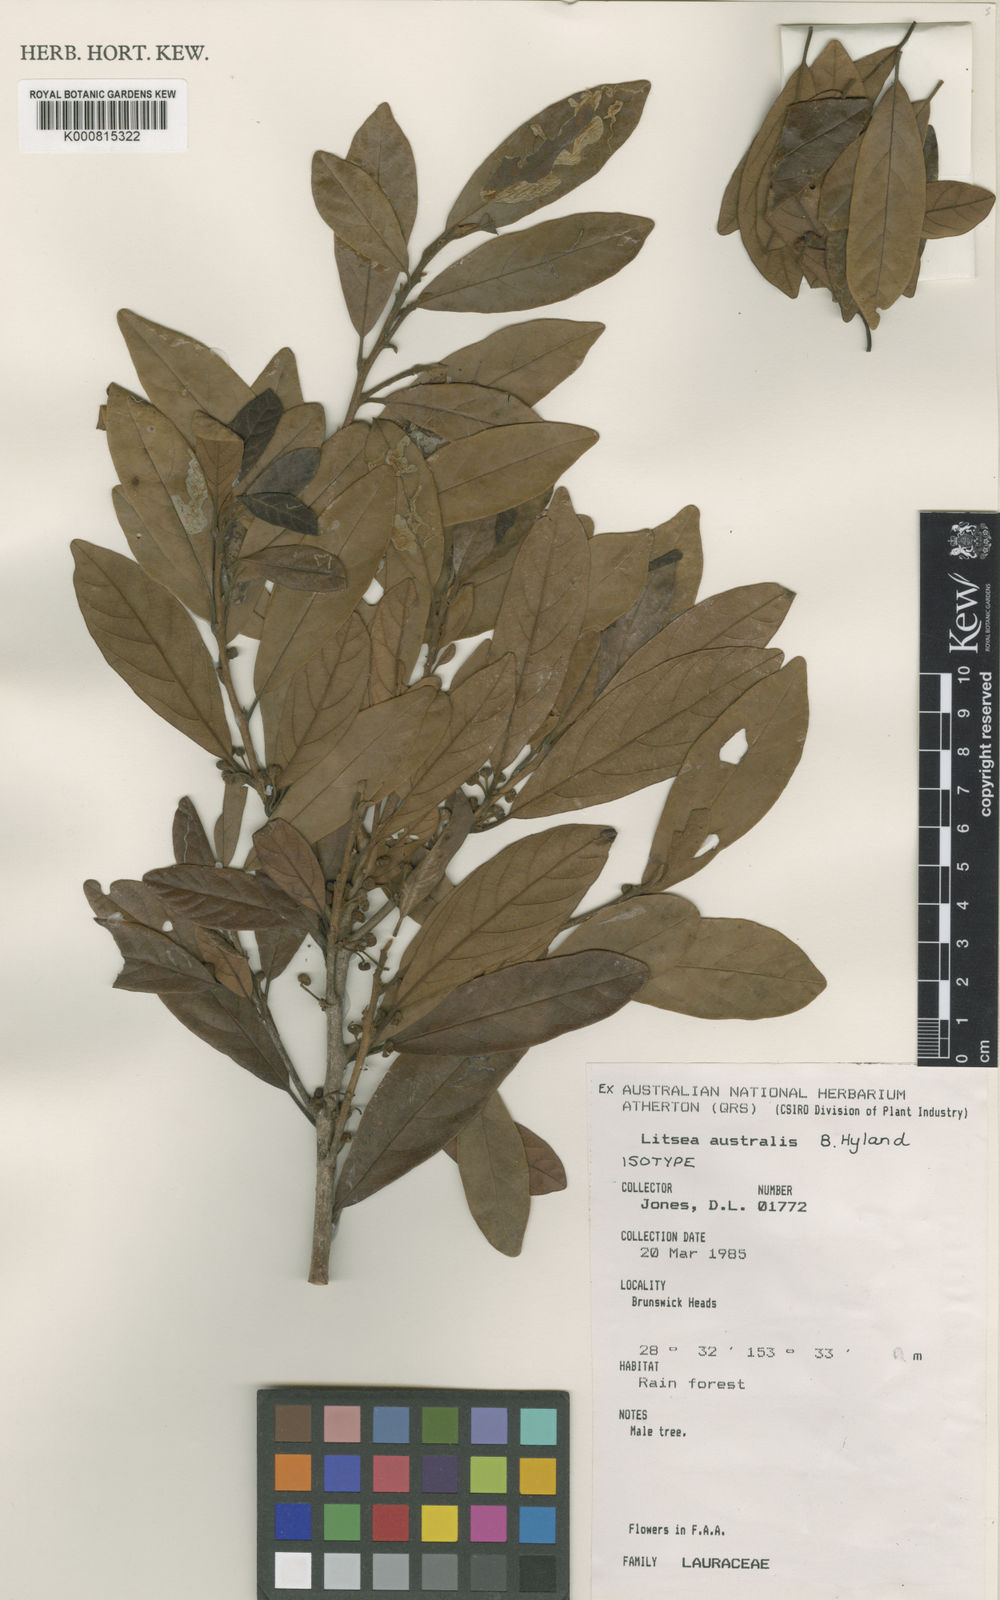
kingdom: Plantae
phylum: Tracheophyta
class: Magnoliopsida
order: Laurales
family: Lauraceae
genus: Litsea
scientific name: Litsea australis
